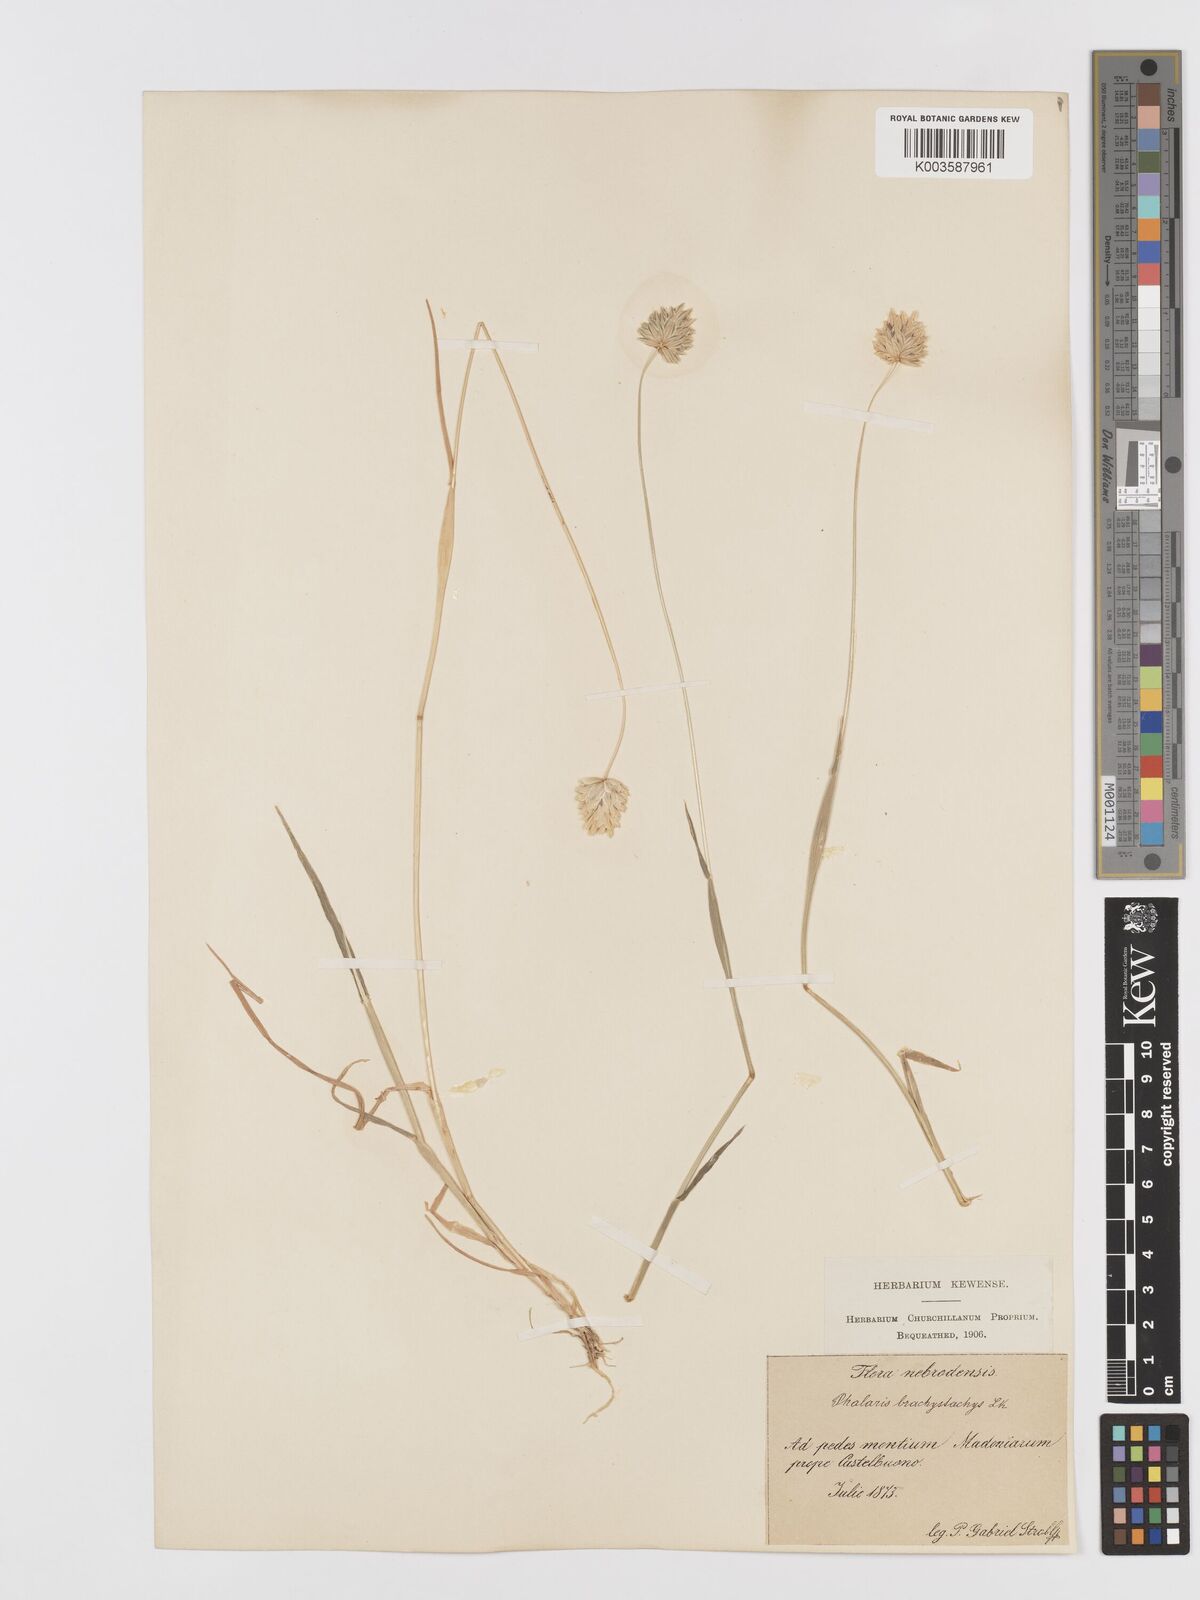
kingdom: Plantae
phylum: Tracheophyta
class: Liliopsida
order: Poales
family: Poaceae
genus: Phalaris
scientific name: Phalaris brachystachys
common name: Confused canary-grass
